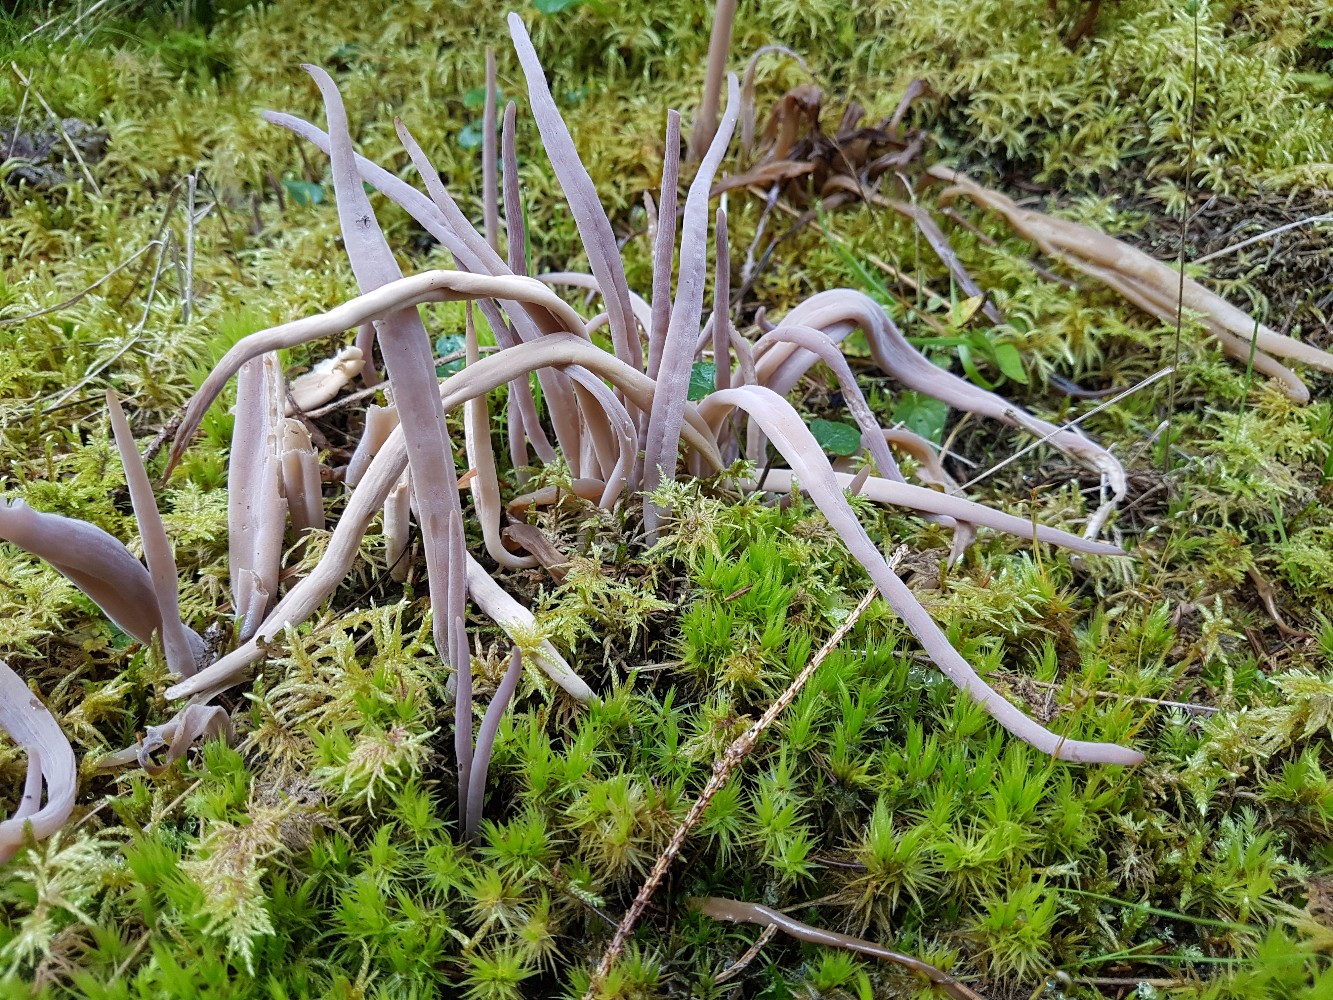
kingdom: Fungi
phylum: Basidiomycota
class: Agaricomycetes
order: Hymenochaetales
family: Rickenellaceae
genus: Alloclavaria
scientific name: Alloclavaria purpurea
